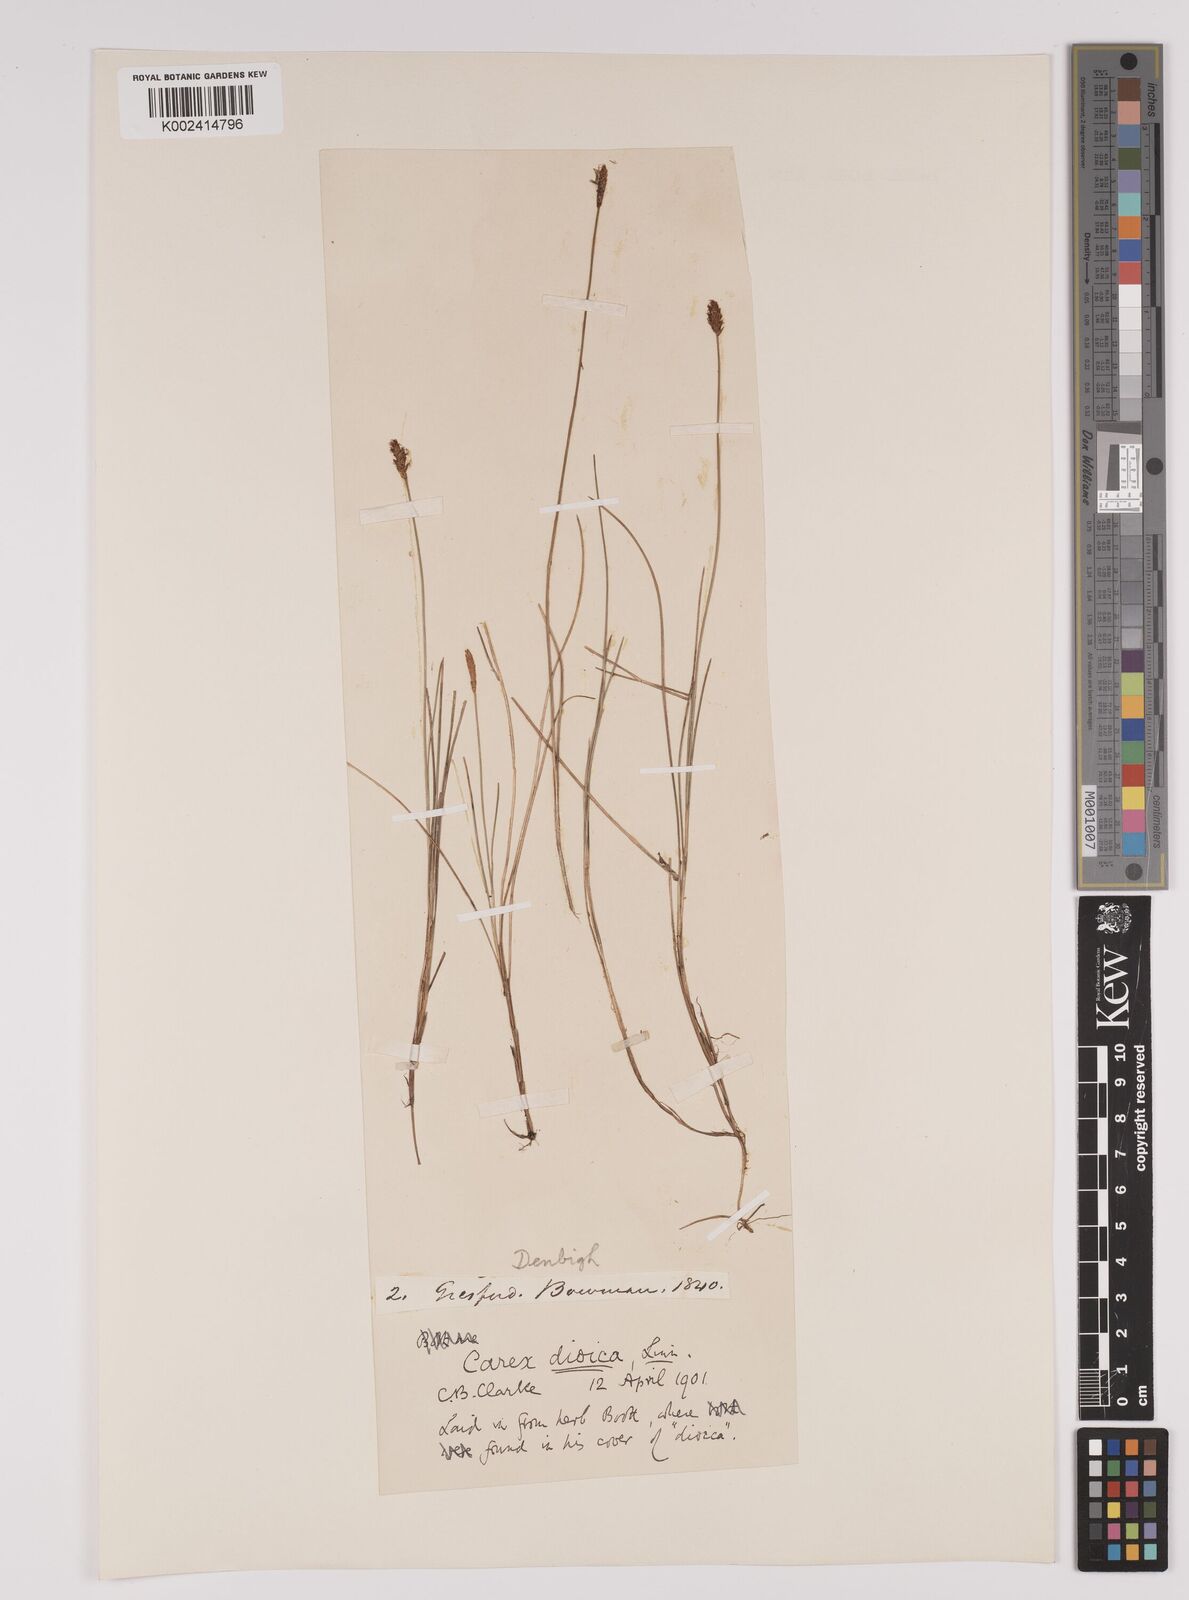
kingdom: Plantae
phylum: Tracheophyta
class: Liliopsida
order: Poales
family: Cyperaceae
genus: Carex
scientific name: Carex dioica
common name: Dioecious sedge
